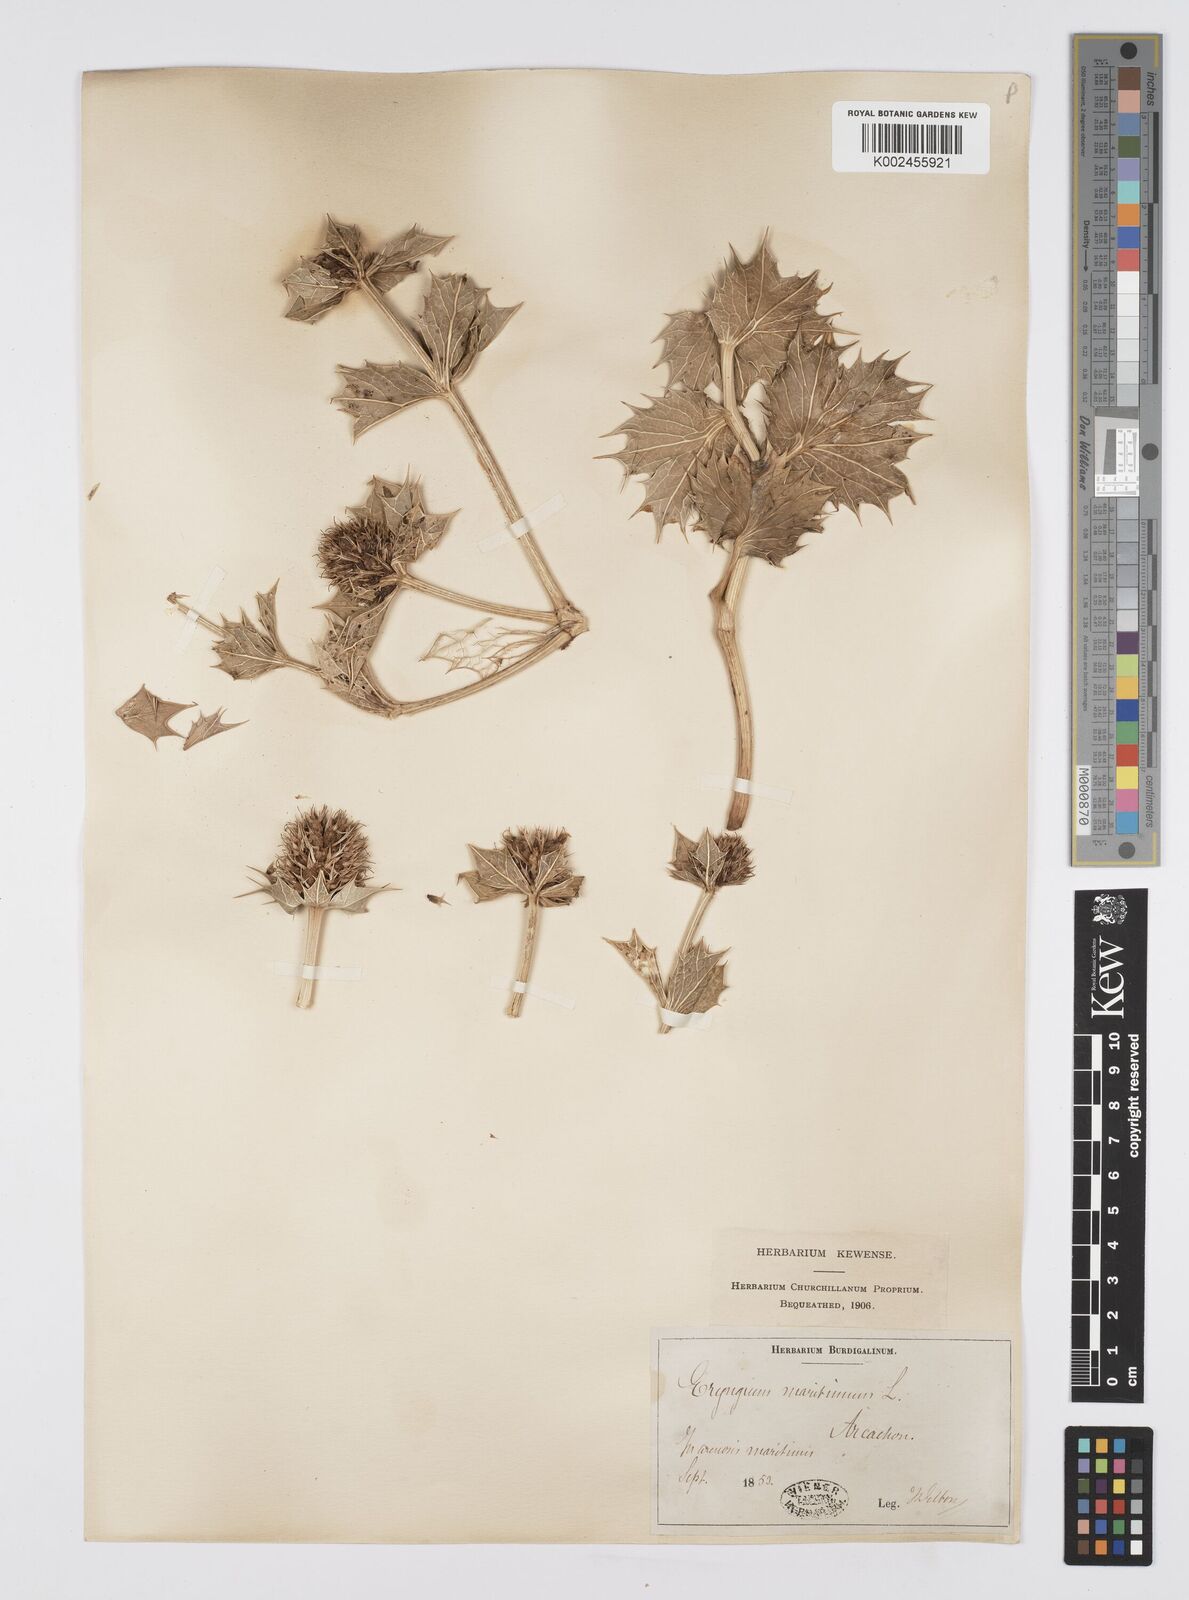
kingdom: Plantae
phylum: Tracheophyta
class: Magnoliopsida
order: Apiales
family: Apiaceae
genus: Eryngium
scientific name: Eryngium maritimum
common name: Sea-holly
